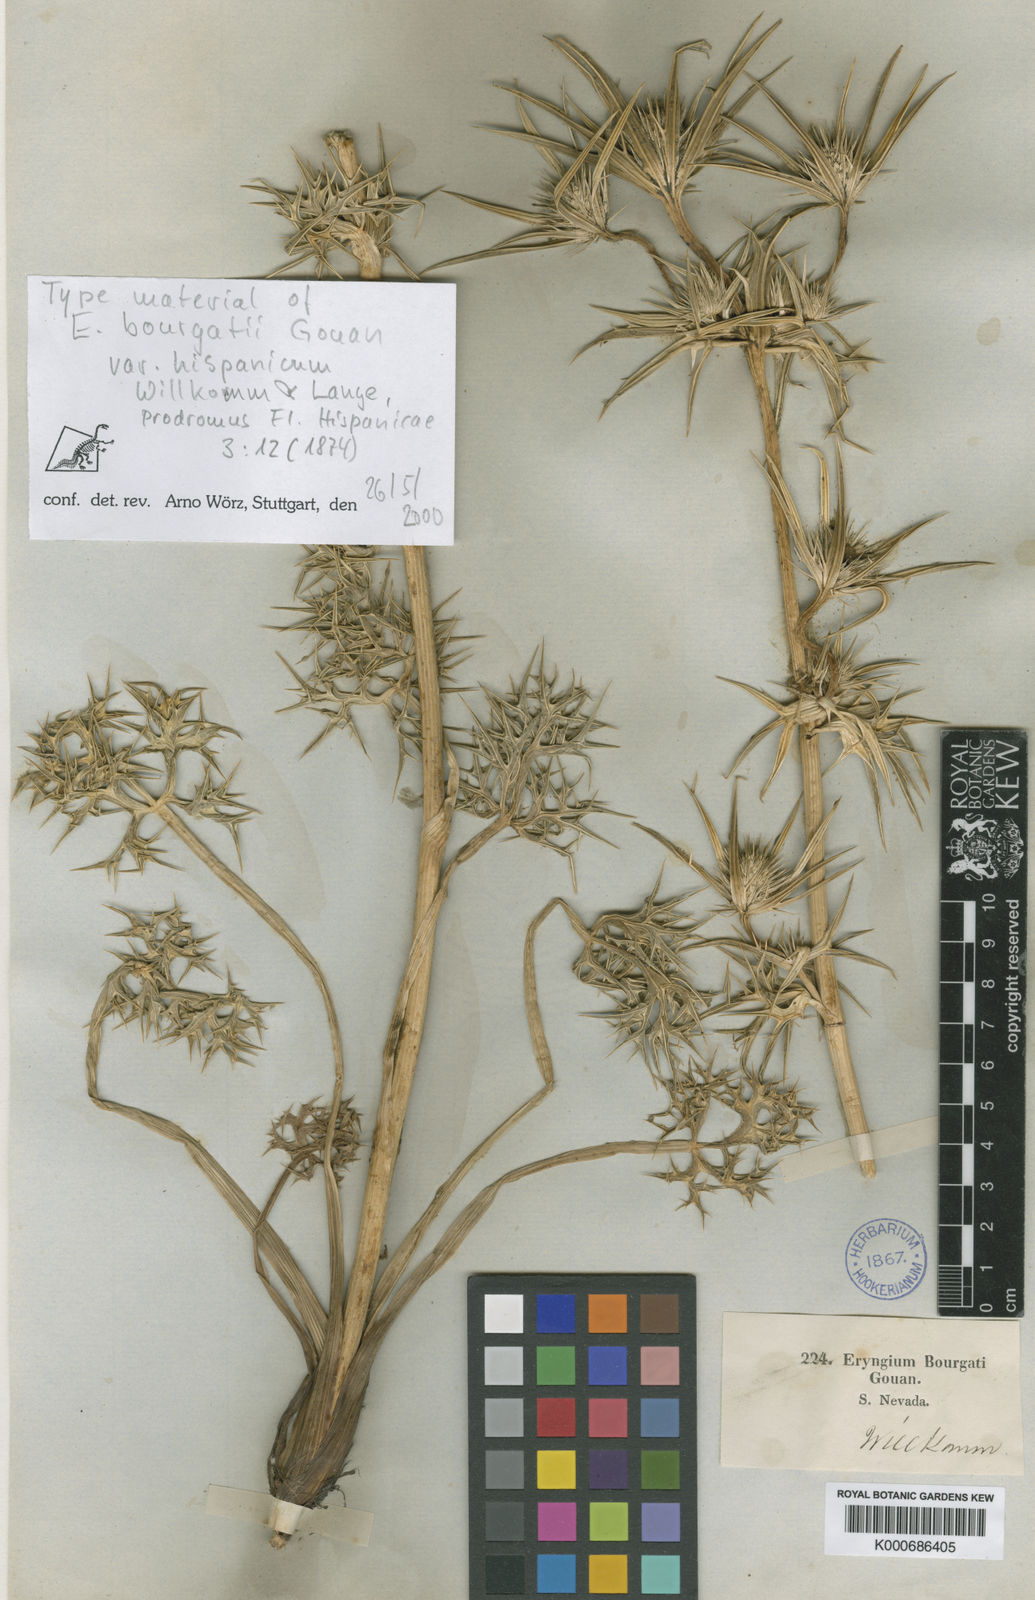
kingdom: Plantae
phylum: Tracheophyta
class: Magnoliopsida
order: Apiales
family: Apiaceae
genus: Eryngium
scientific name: Eryngium bourgatii
